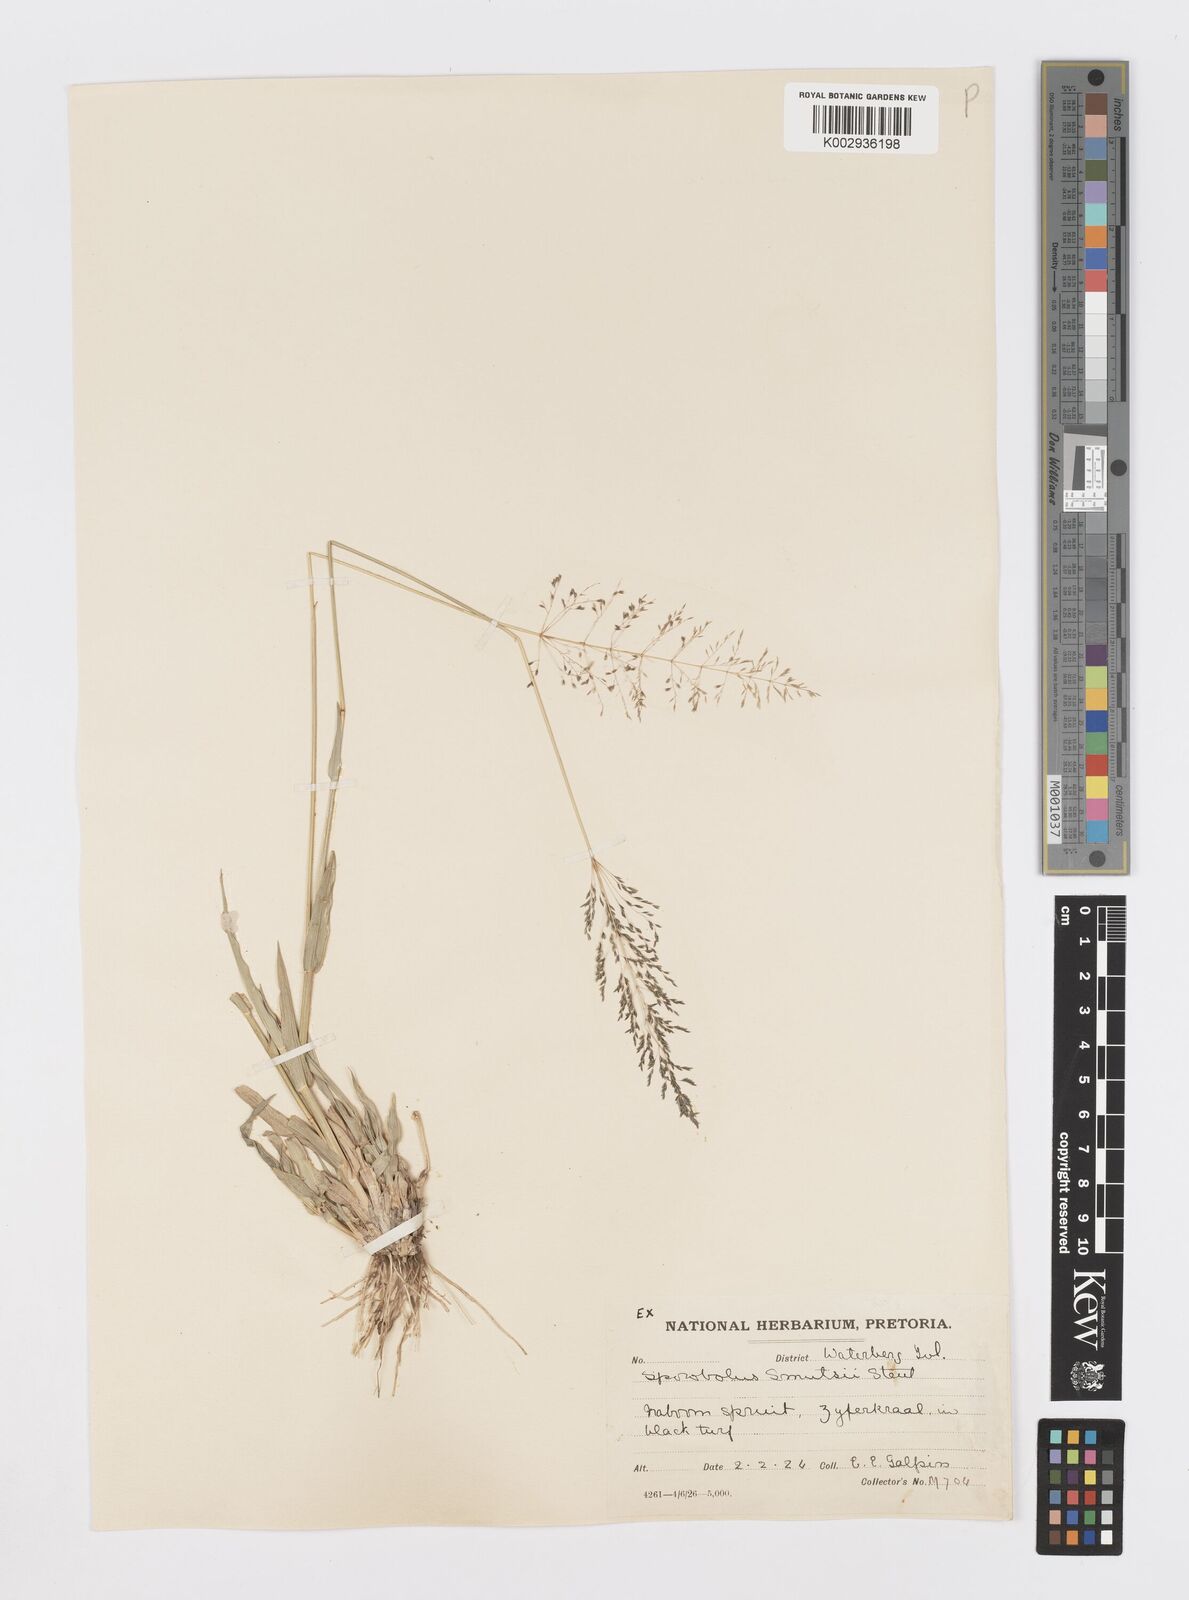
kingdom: Plantae
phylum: Tracheophyta
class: Liliopsida
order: Poales
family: Poaceae
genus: Sporobolus
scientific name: Sporobolus ioclados
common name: Pan dropseed
